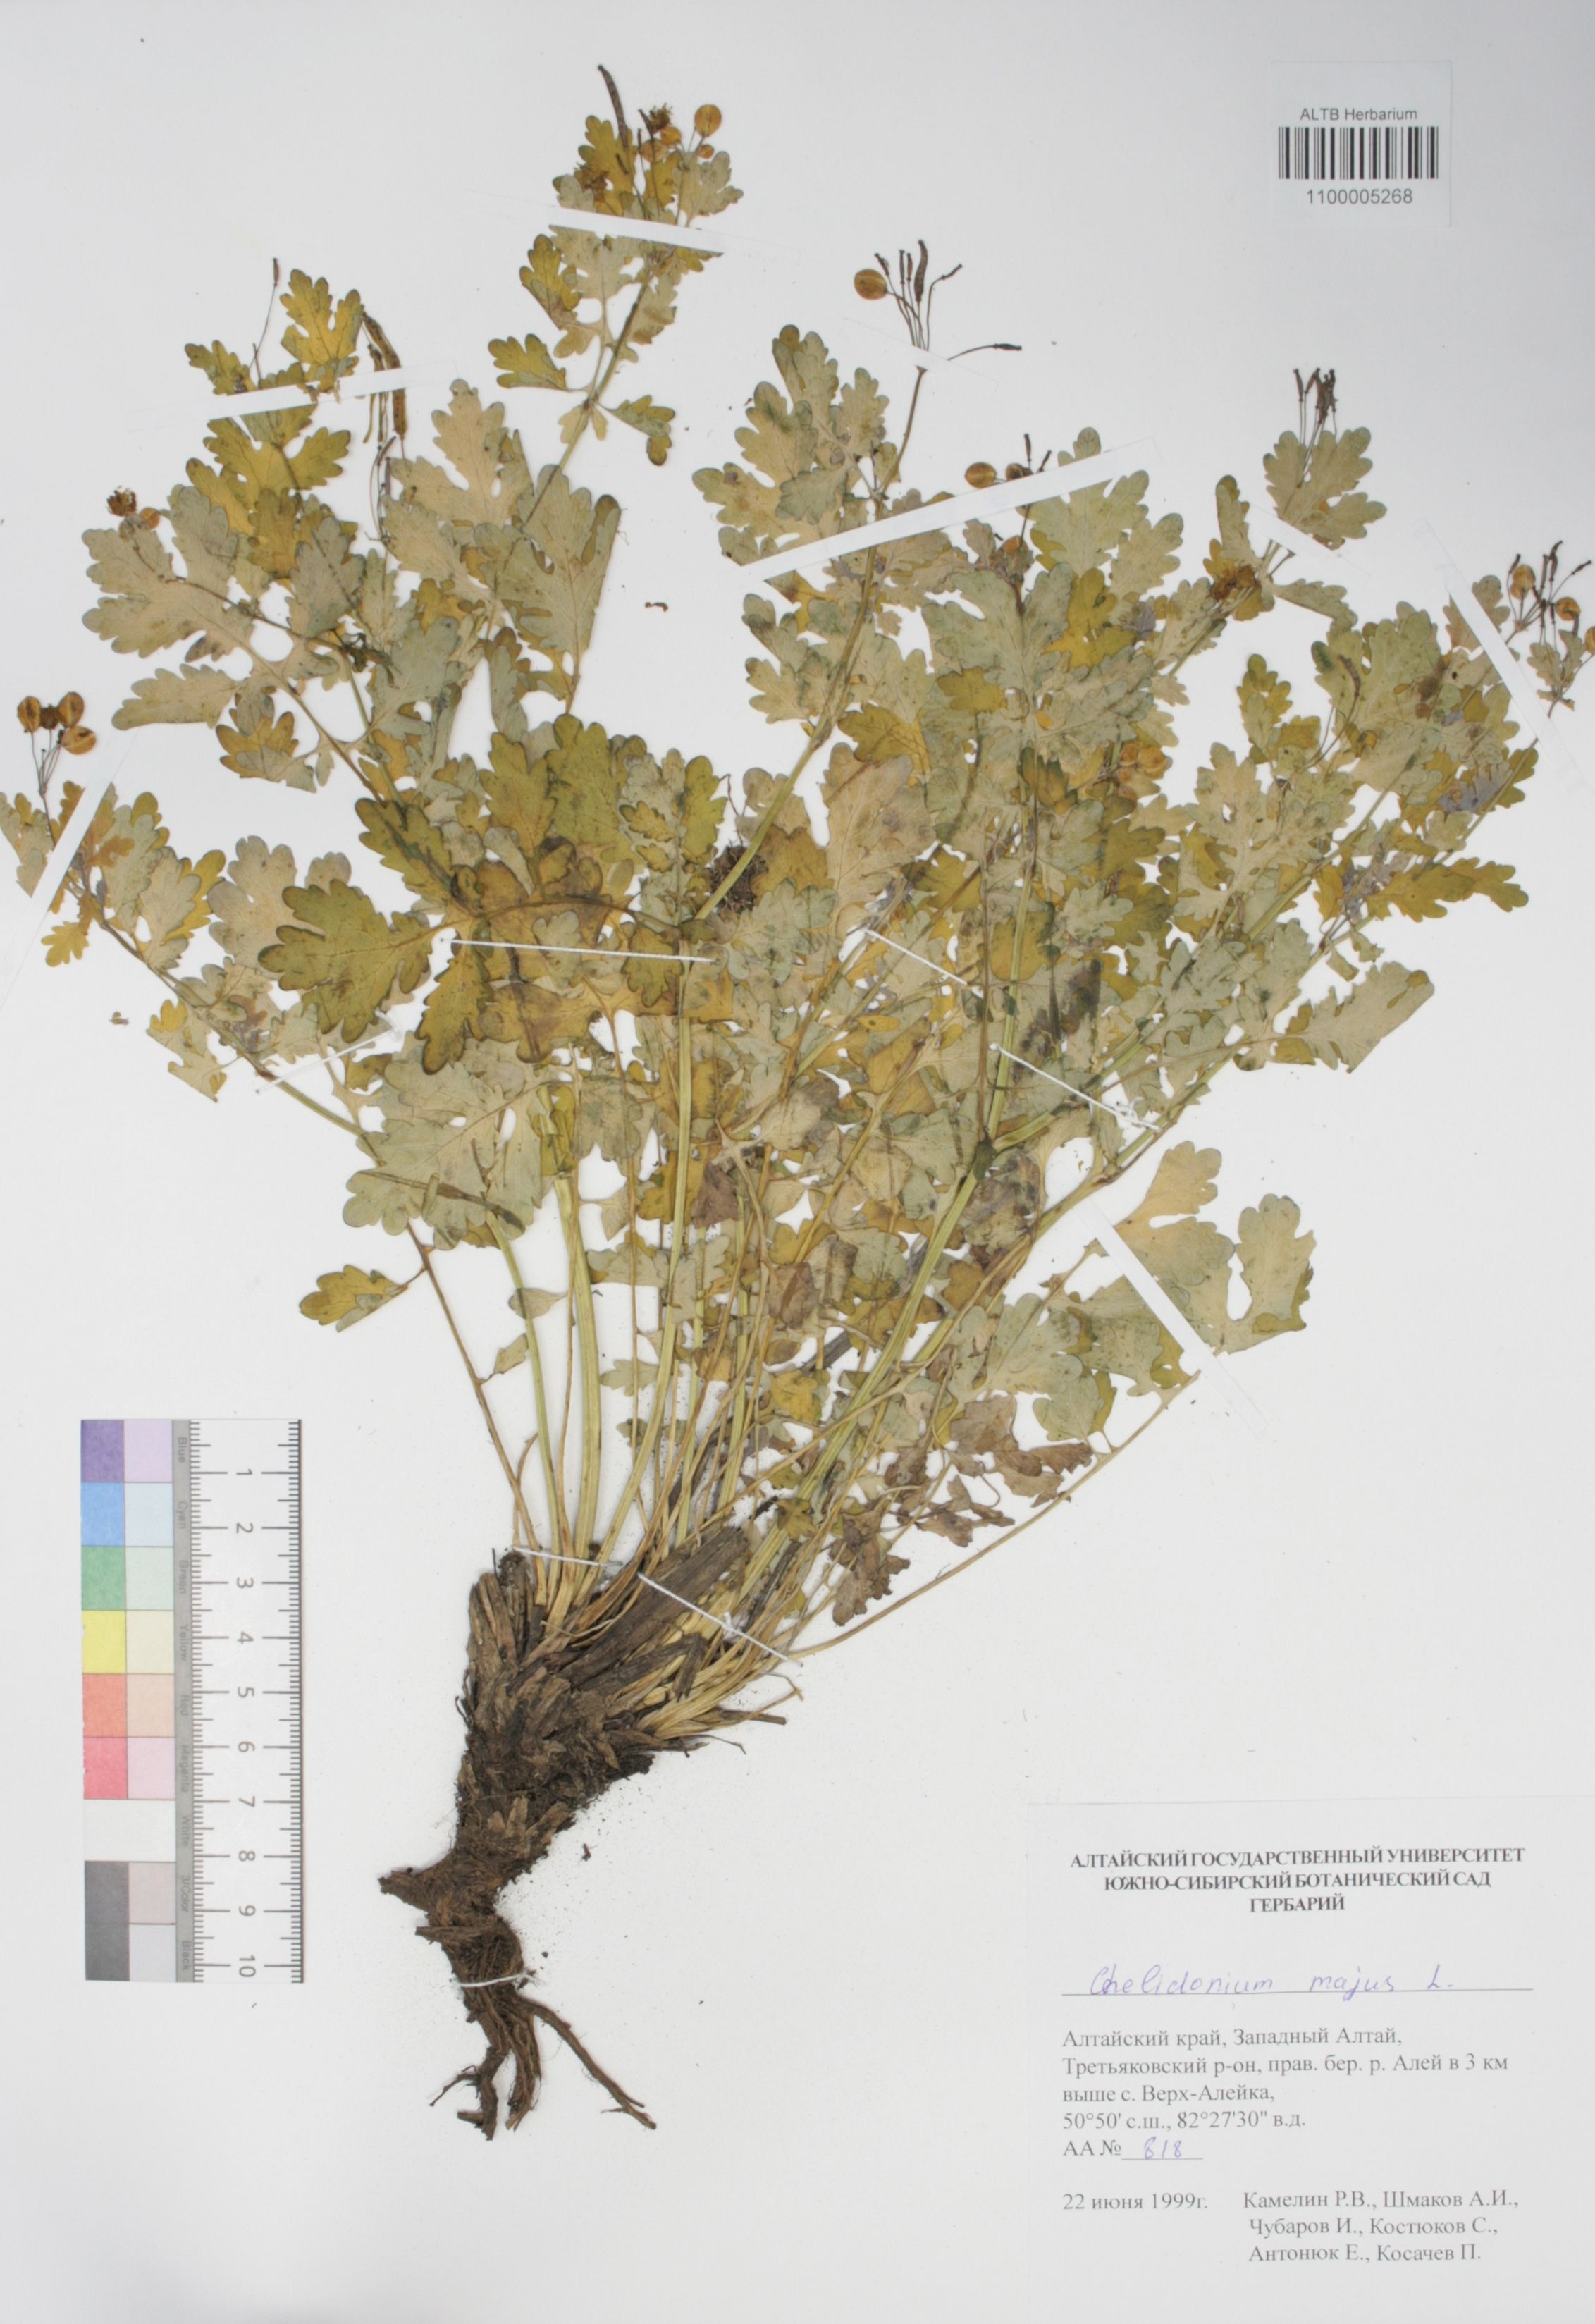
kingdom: Plantae
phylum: Tracheophyta
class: Magnoliopsida
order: Ranunculales
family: Papaveraceae
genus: Chelidonium
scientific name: Chelidonium majus
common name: Greater celandine
